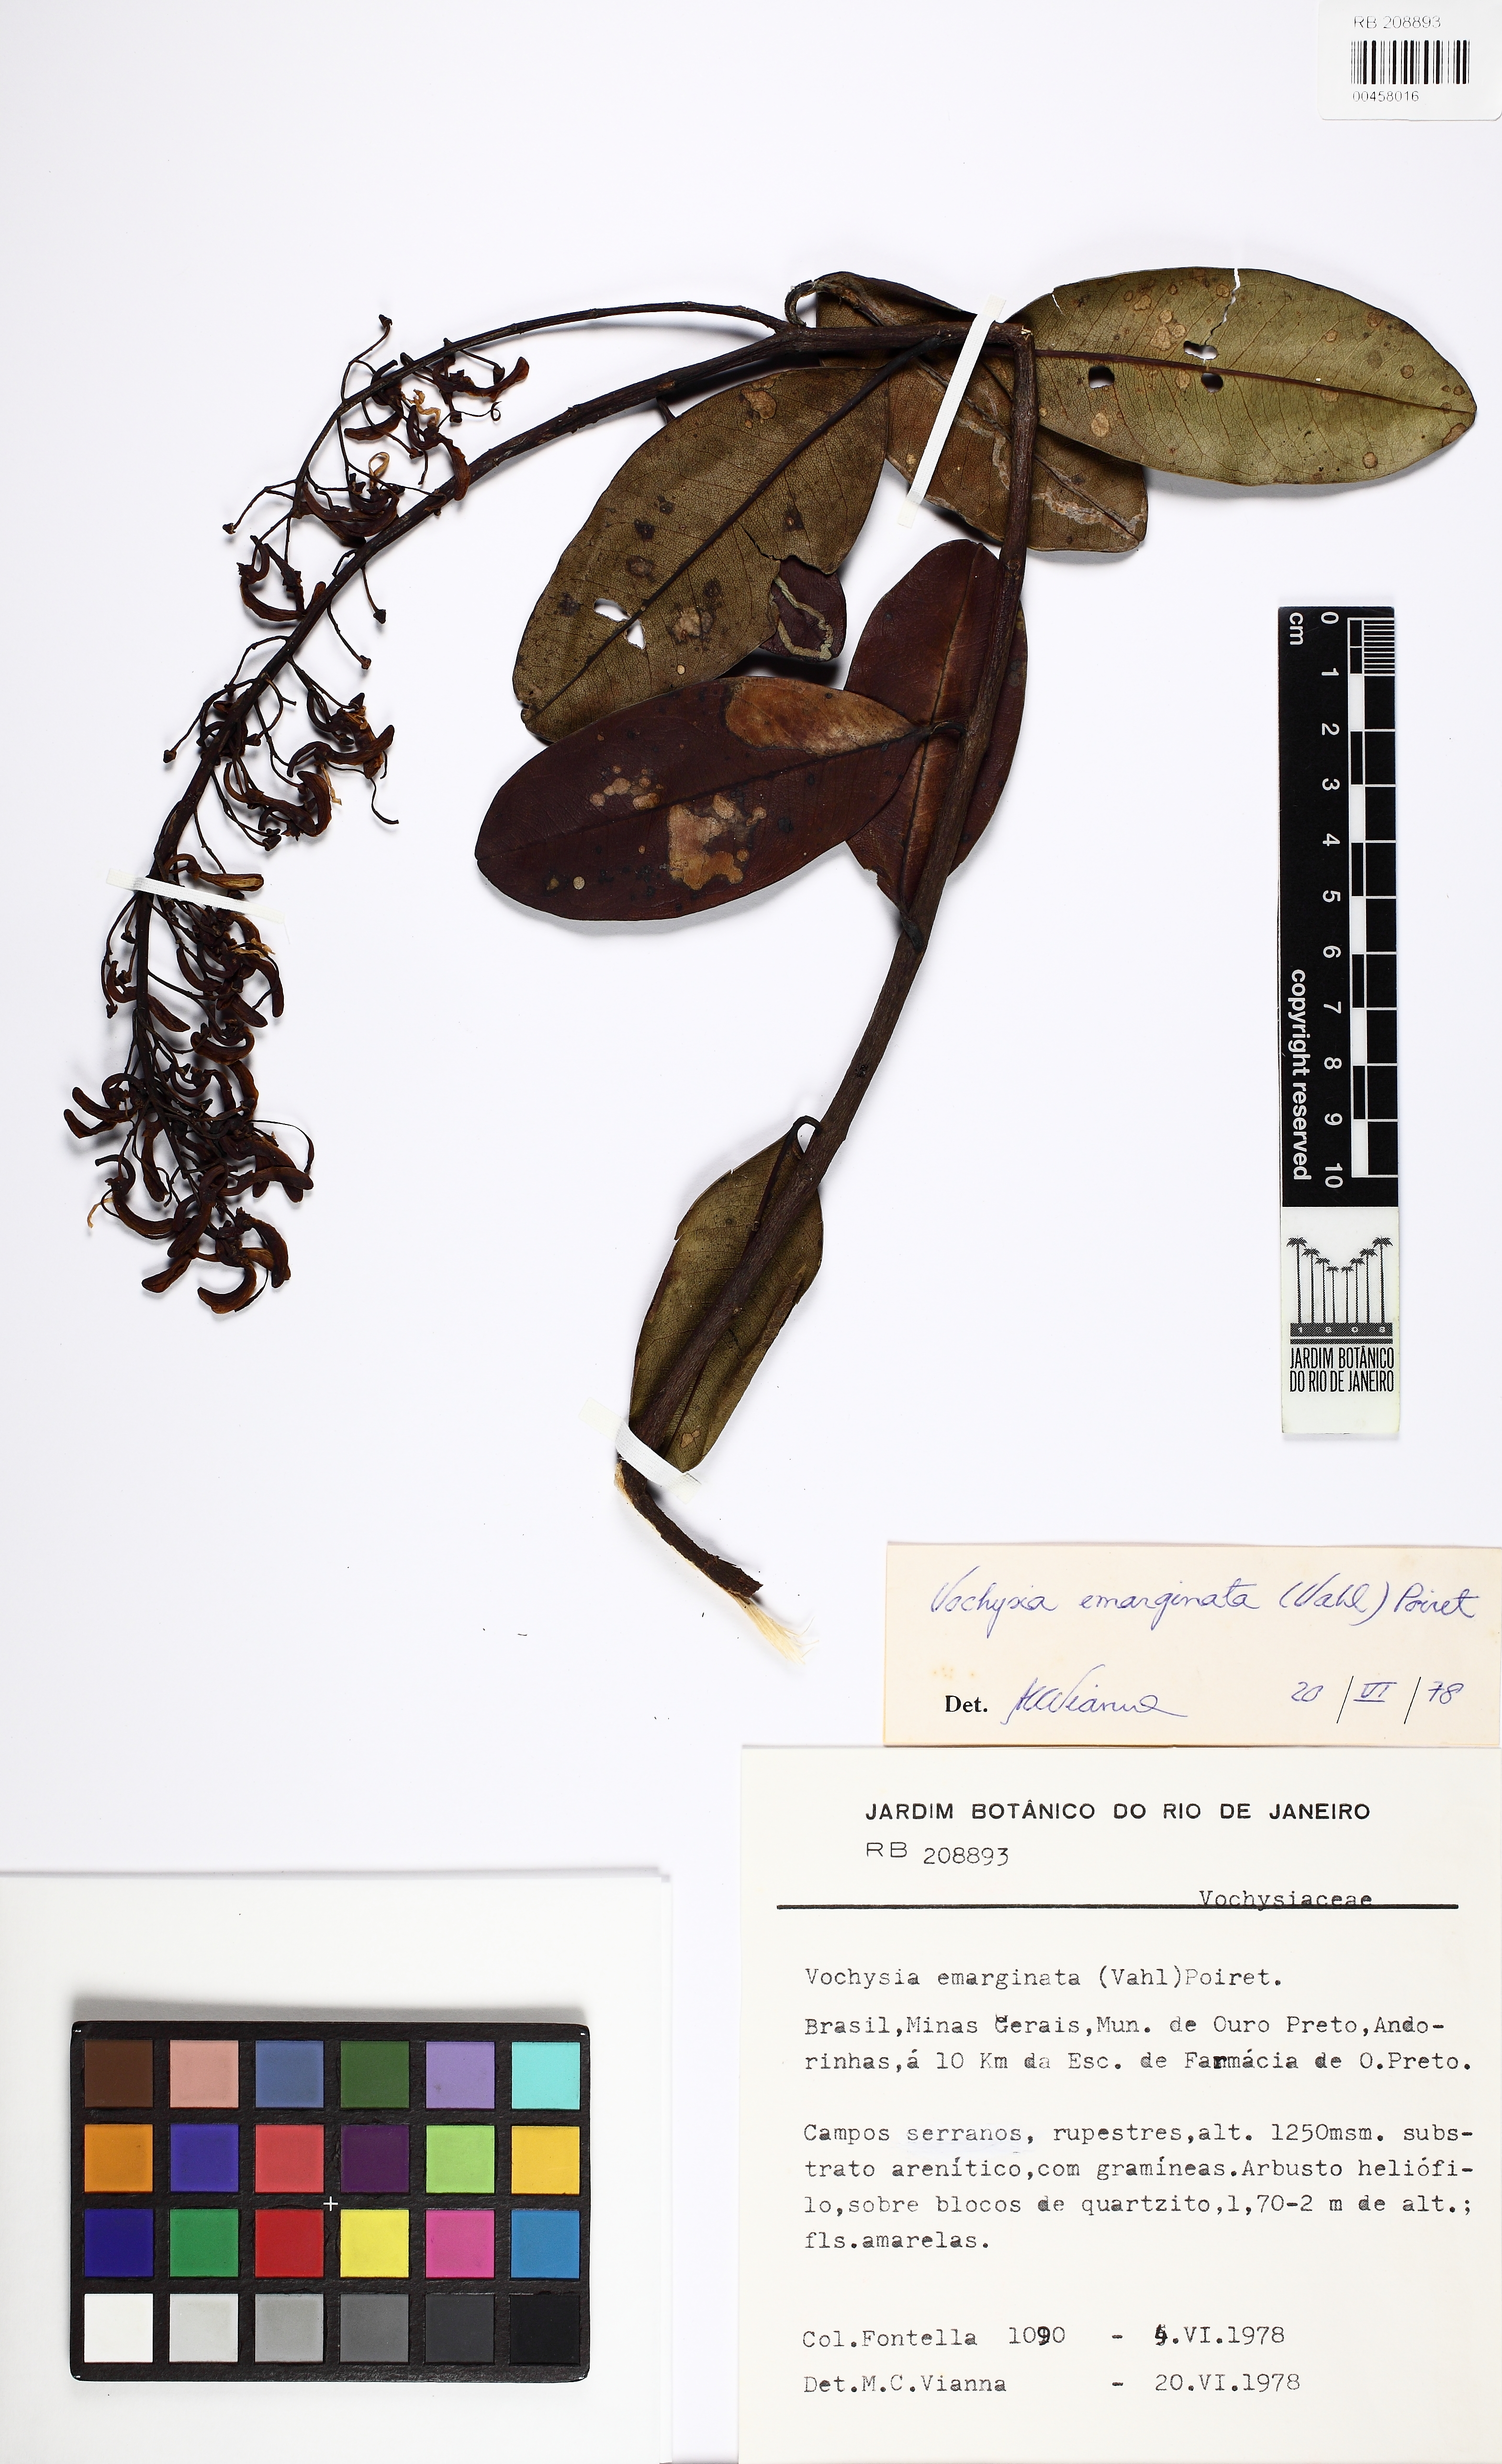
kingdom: Plantae
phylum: Tracheophyta
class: Magnoliopsida
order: Myrtales
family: Vochysiaceae
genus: Vochysia
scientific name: Vochysia emarginata
